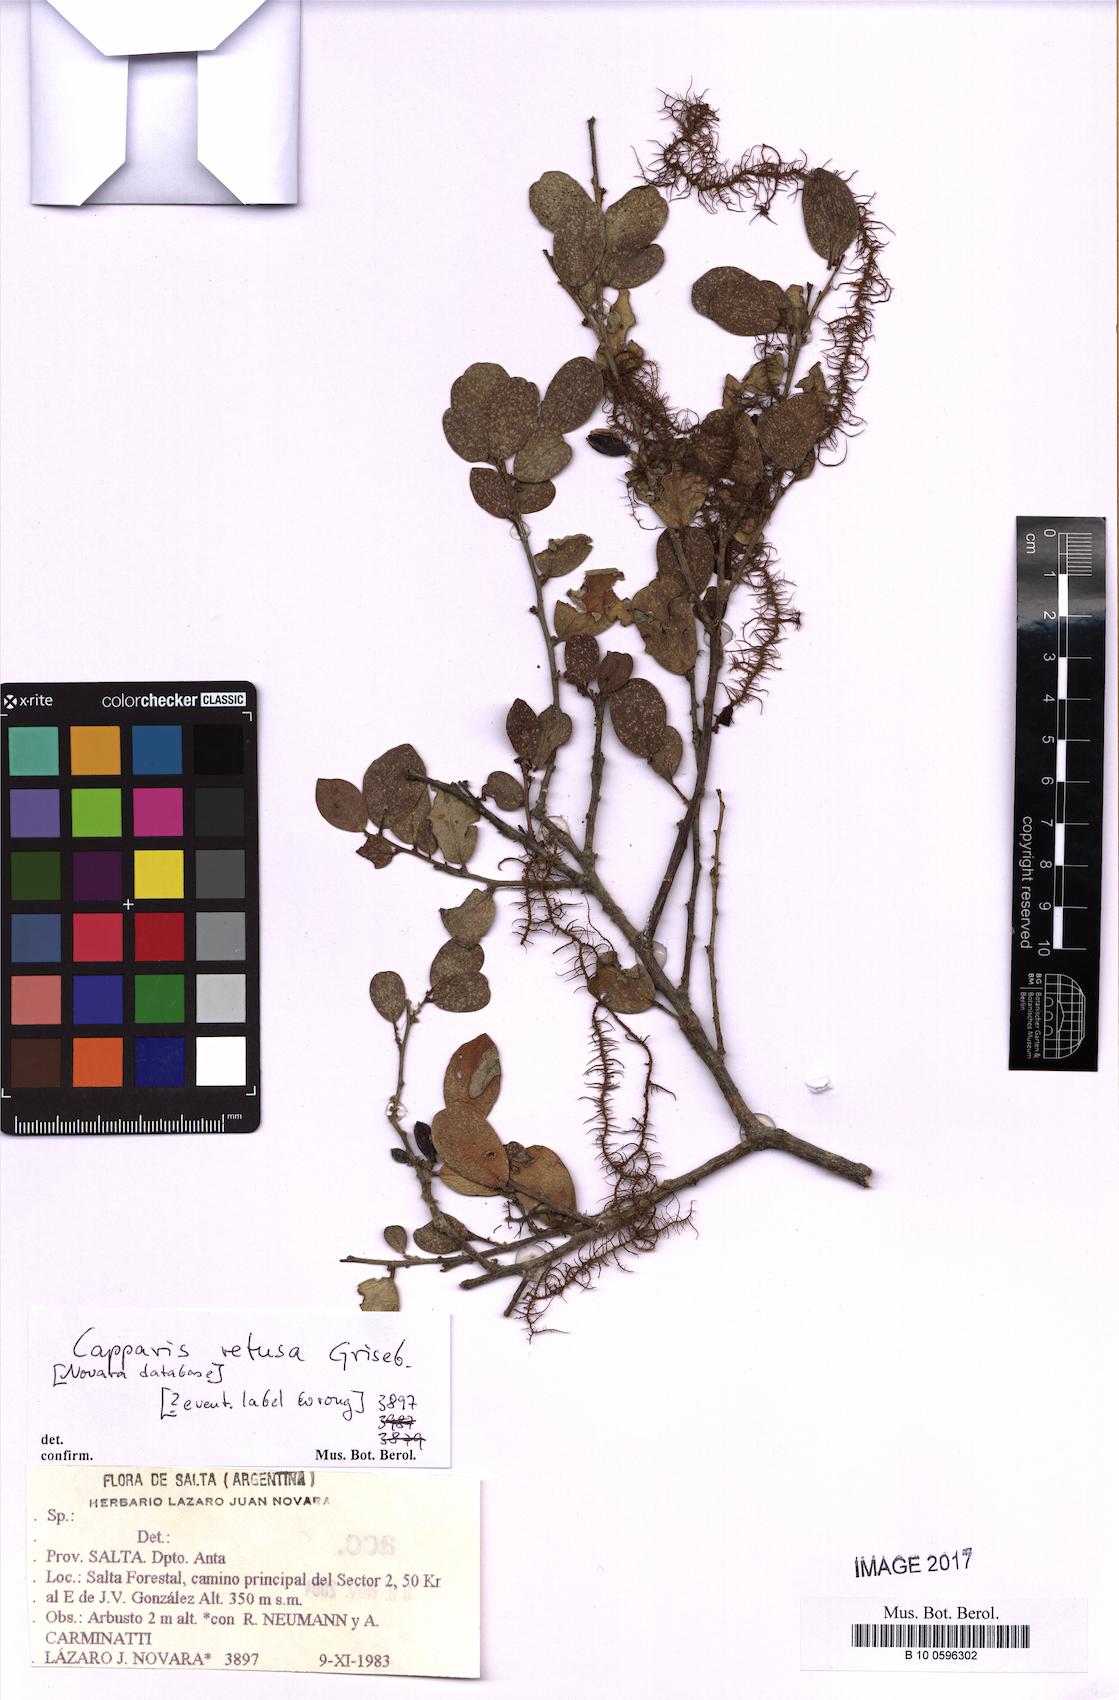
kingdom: Plantae
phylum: Tracheophyta
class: Magnoliopsida
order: Brassicales
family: Capparaceae
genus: Cynophalla
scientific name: Cynophalla retusa
